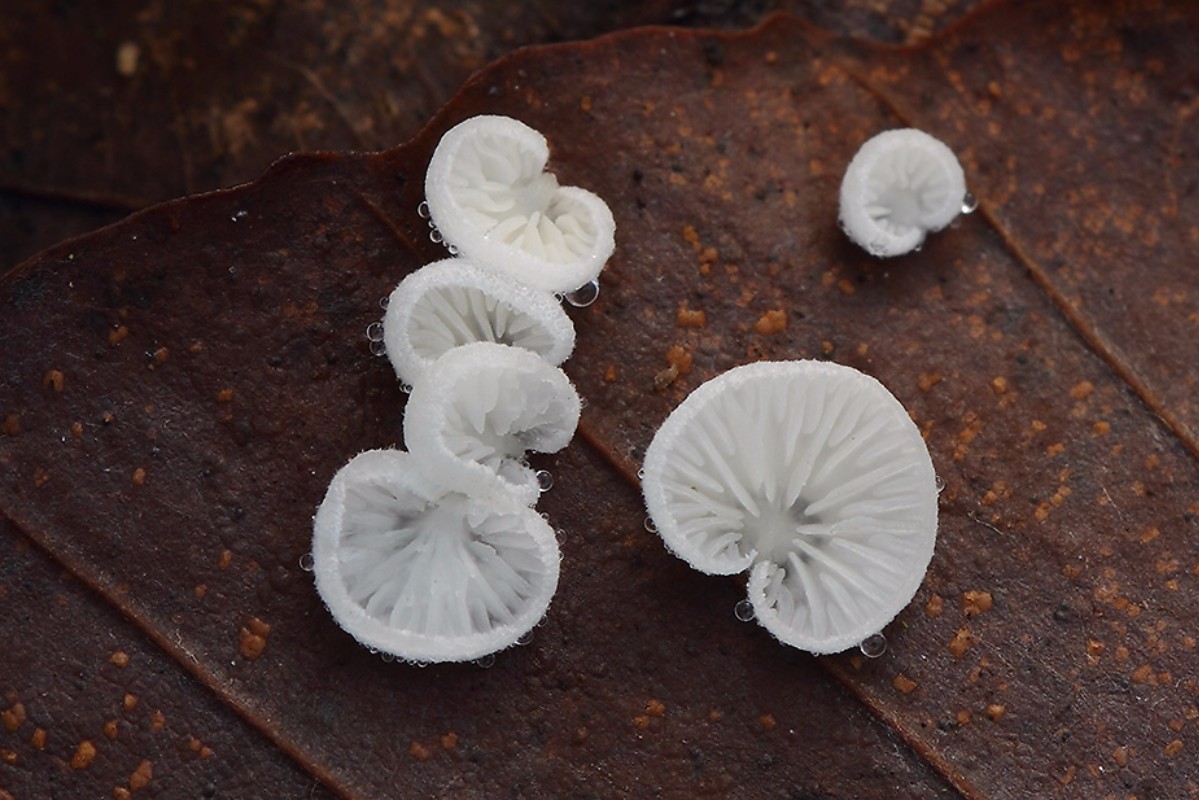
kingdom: Fungi
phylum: Basidiomycota
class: Agaricomycetes
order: Agaricales
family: Entolomataceae
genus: Clitopilus
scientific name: Clitopilus hobsonii
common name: Miller's oysterling
